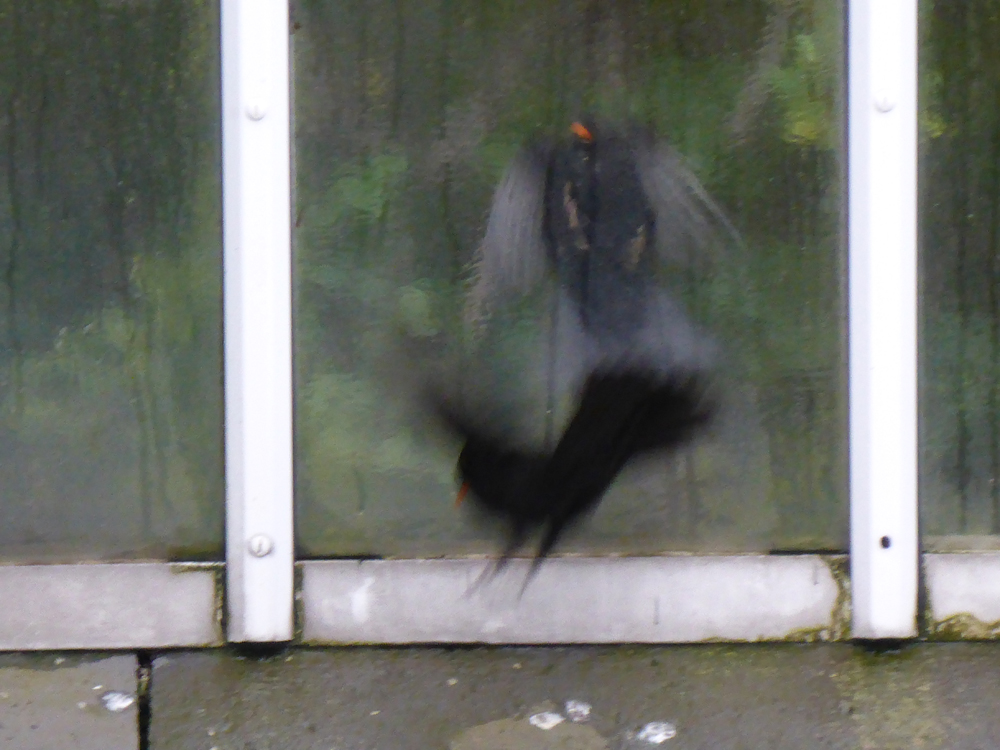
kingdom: Animalia
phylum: Chordata
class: Aves
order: Passeriformes
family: Turdidae
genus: Turdus
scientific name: Turdus merula
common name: Common blackbird
